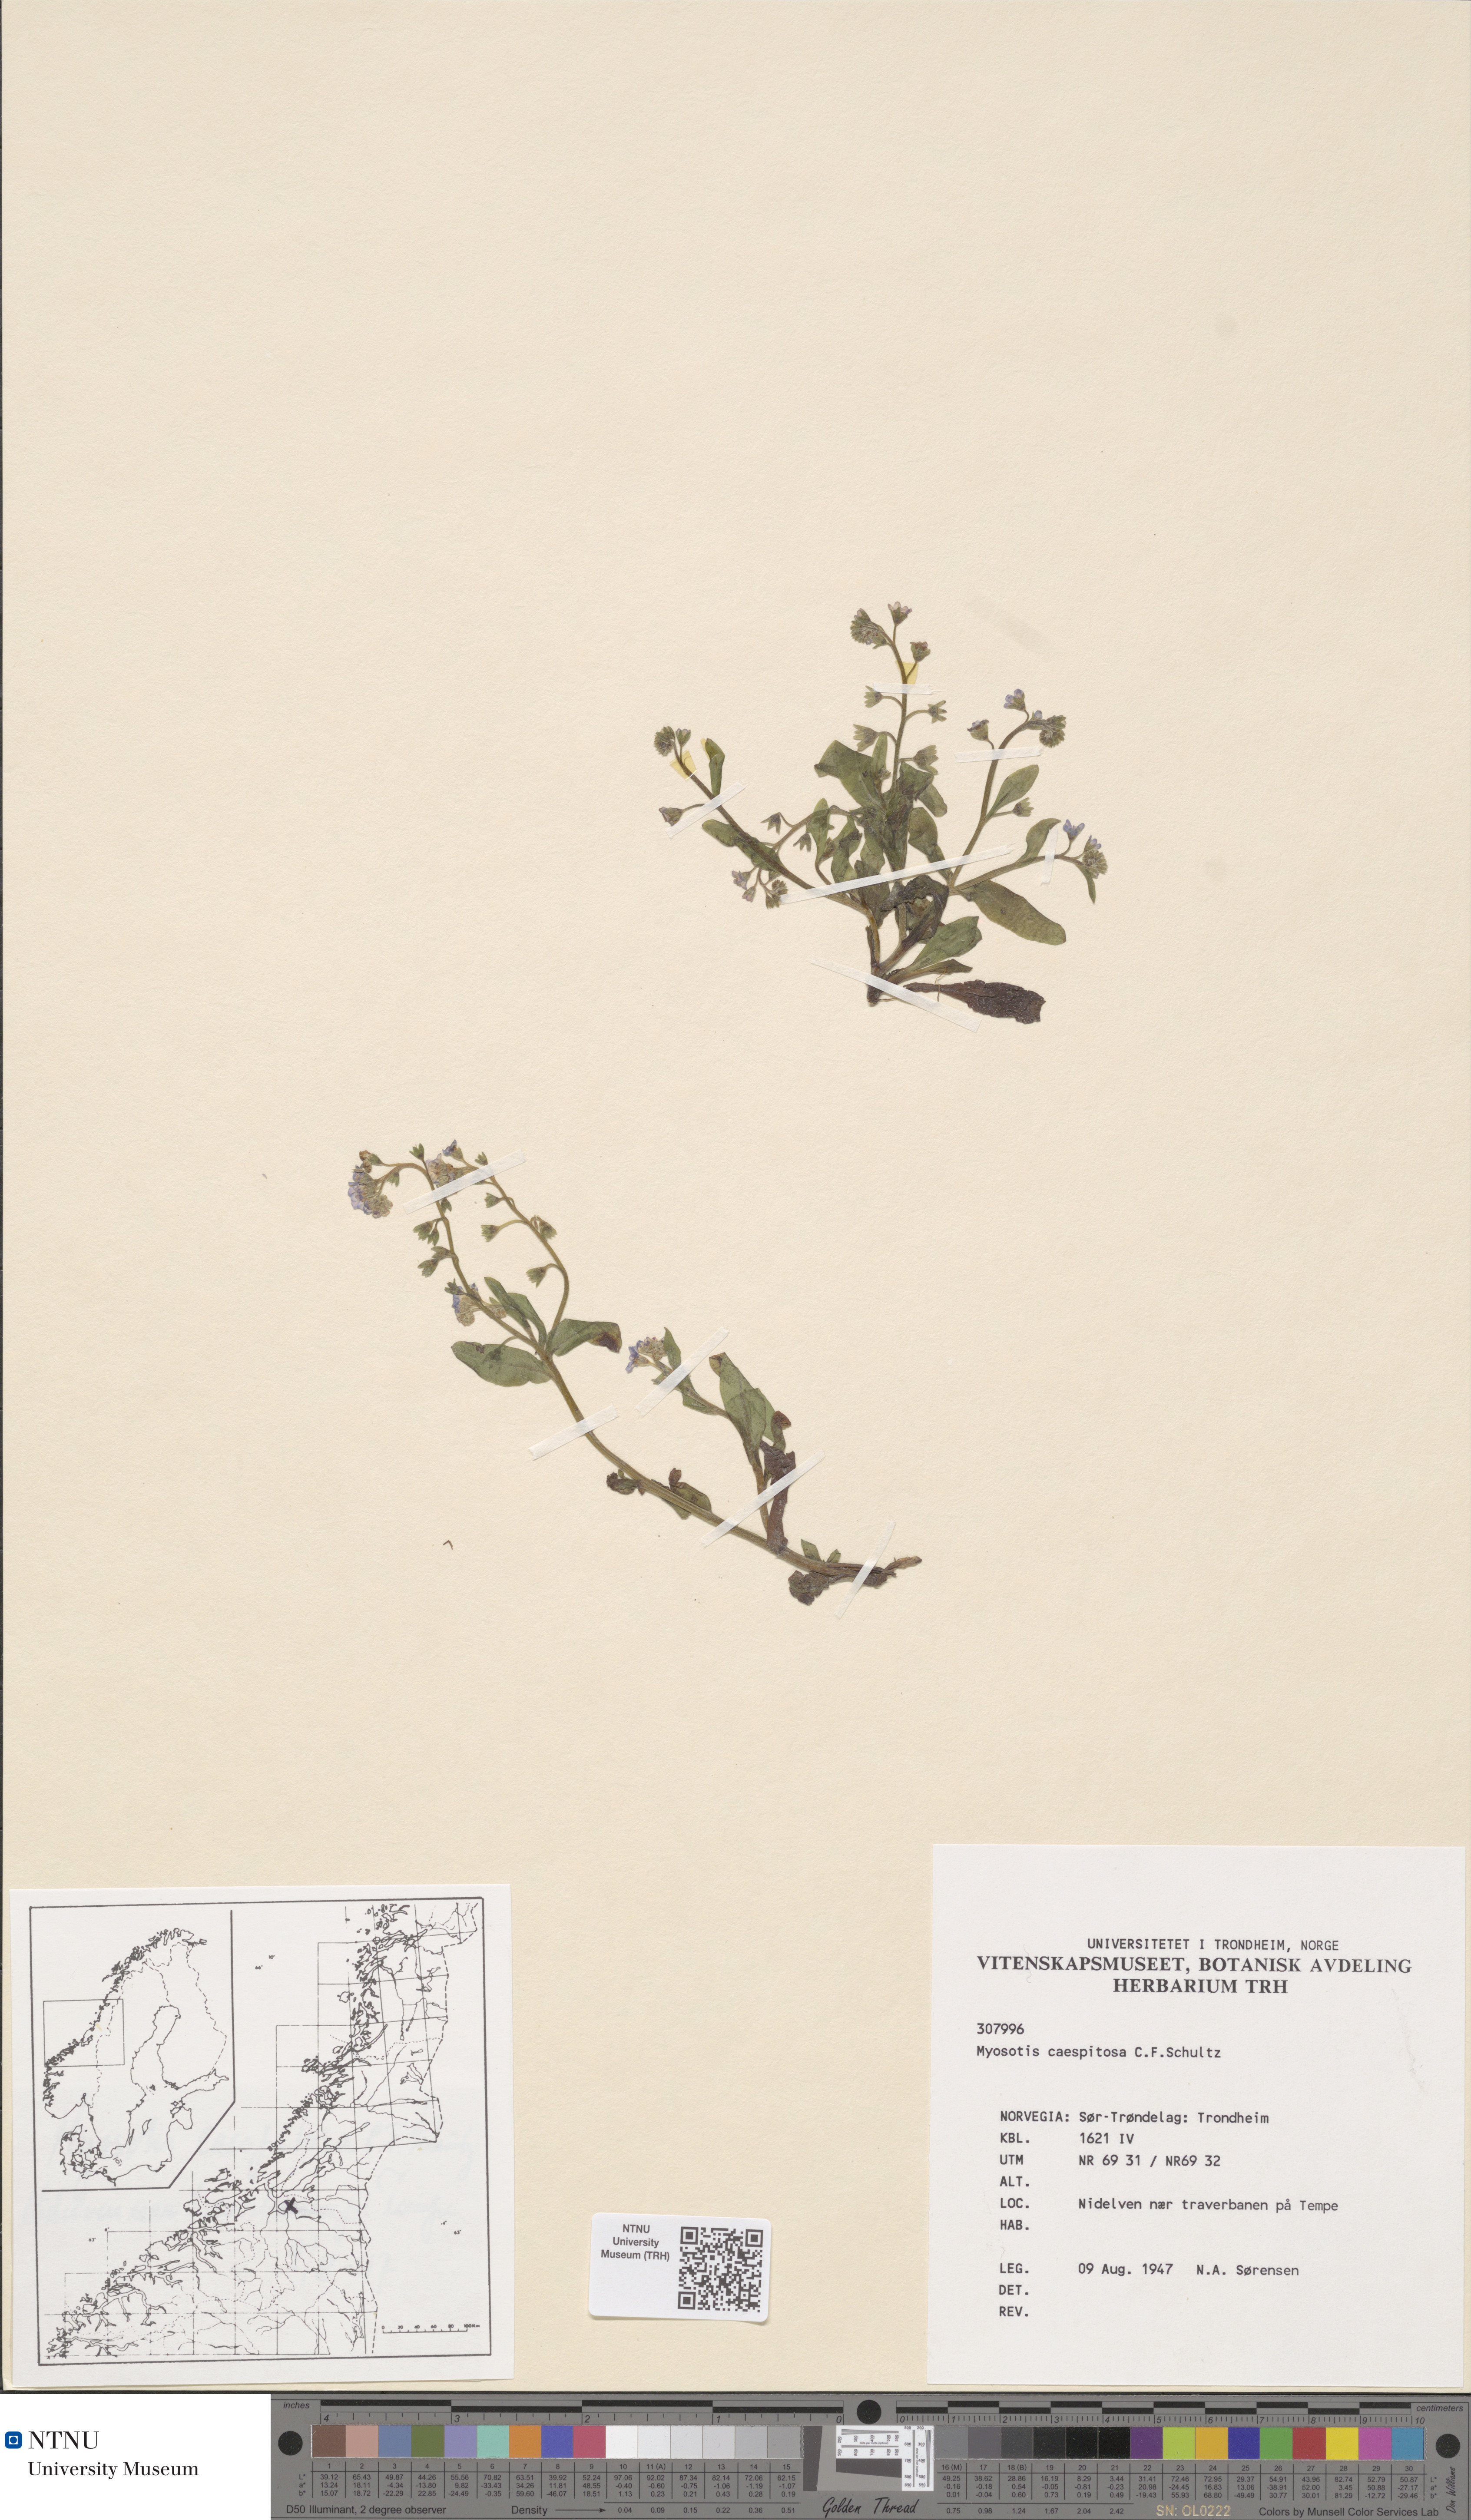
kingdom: Plantae
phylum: Tracheophyta
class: Magnoliopsida
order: Boraginales
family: Boraginaceae
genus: Myosotis
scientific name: Myosotis laxa
